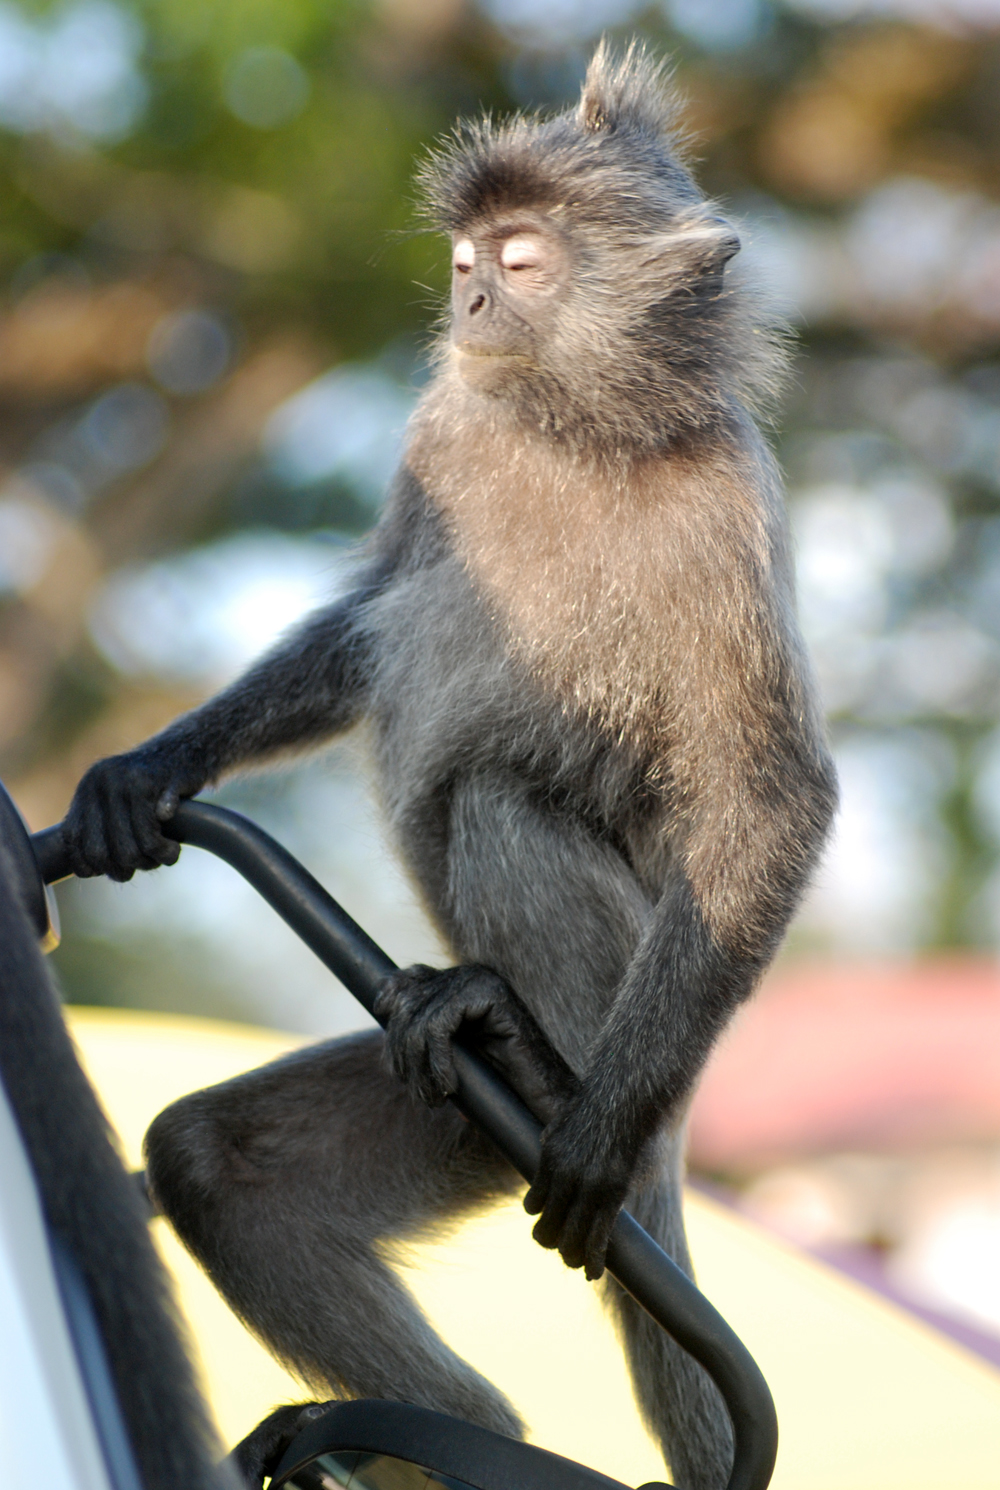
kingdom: Animalia
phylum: Chordata
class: Mammalia
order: Primates
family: Cercopithecidae
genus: Trachypithecus
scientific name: Trachypithecus cristatus
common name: Silvery lutung
